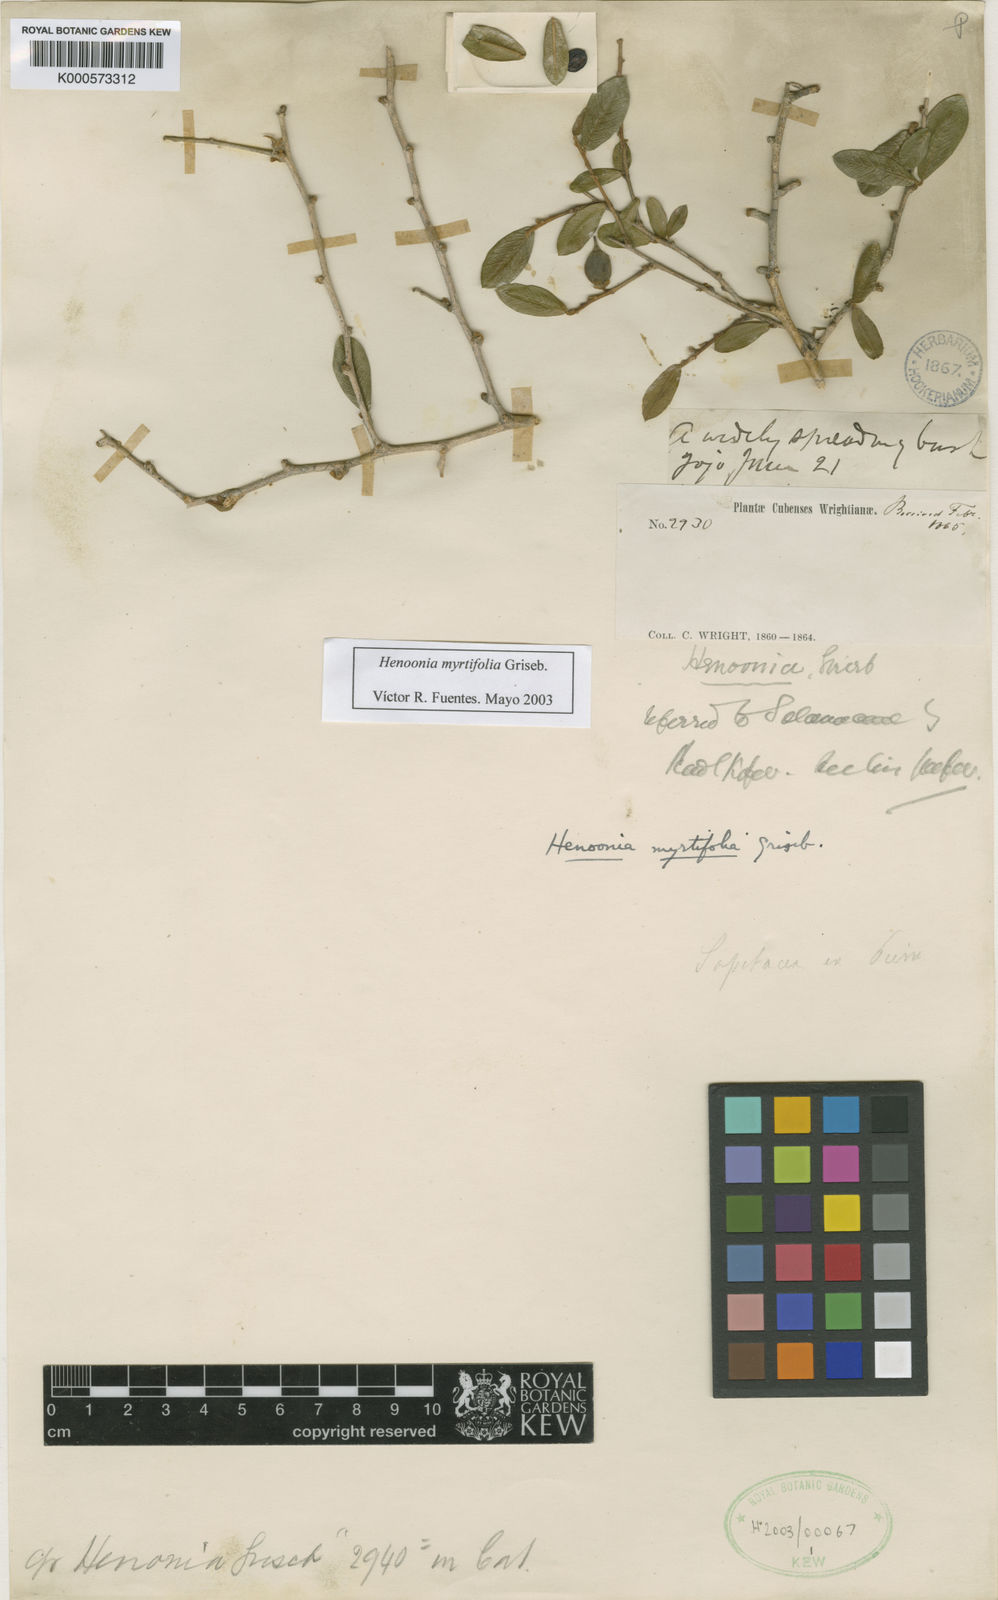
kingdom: Plantae
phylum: Tracheophyta
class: Magnoliopsida
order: Solanales
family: Solanaceae
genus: Henoonia
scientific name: Henoonia myrtifolia
